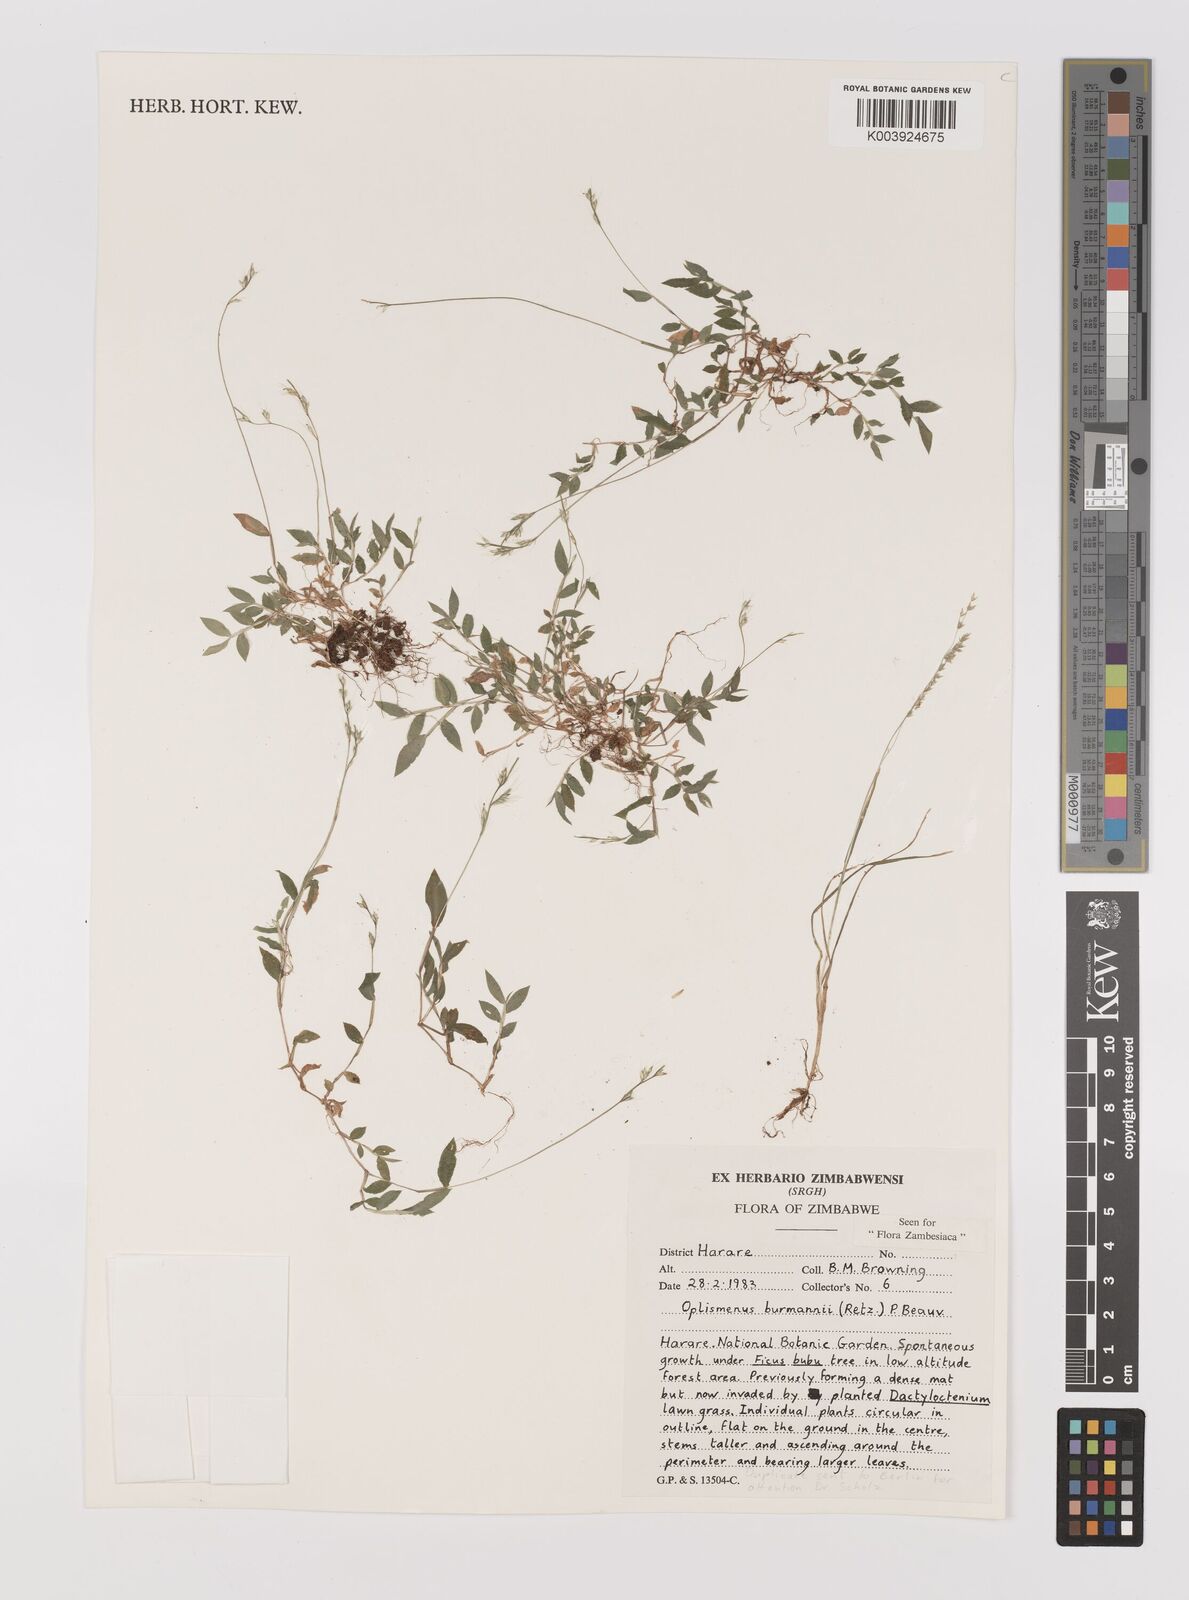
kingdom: Plantae
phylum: Tracheophyta
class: Liliopsida
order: Poales
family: Poaceae
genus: Oplismenus
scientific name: Oplismenus burmanni
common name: Burmann's basketgrass
